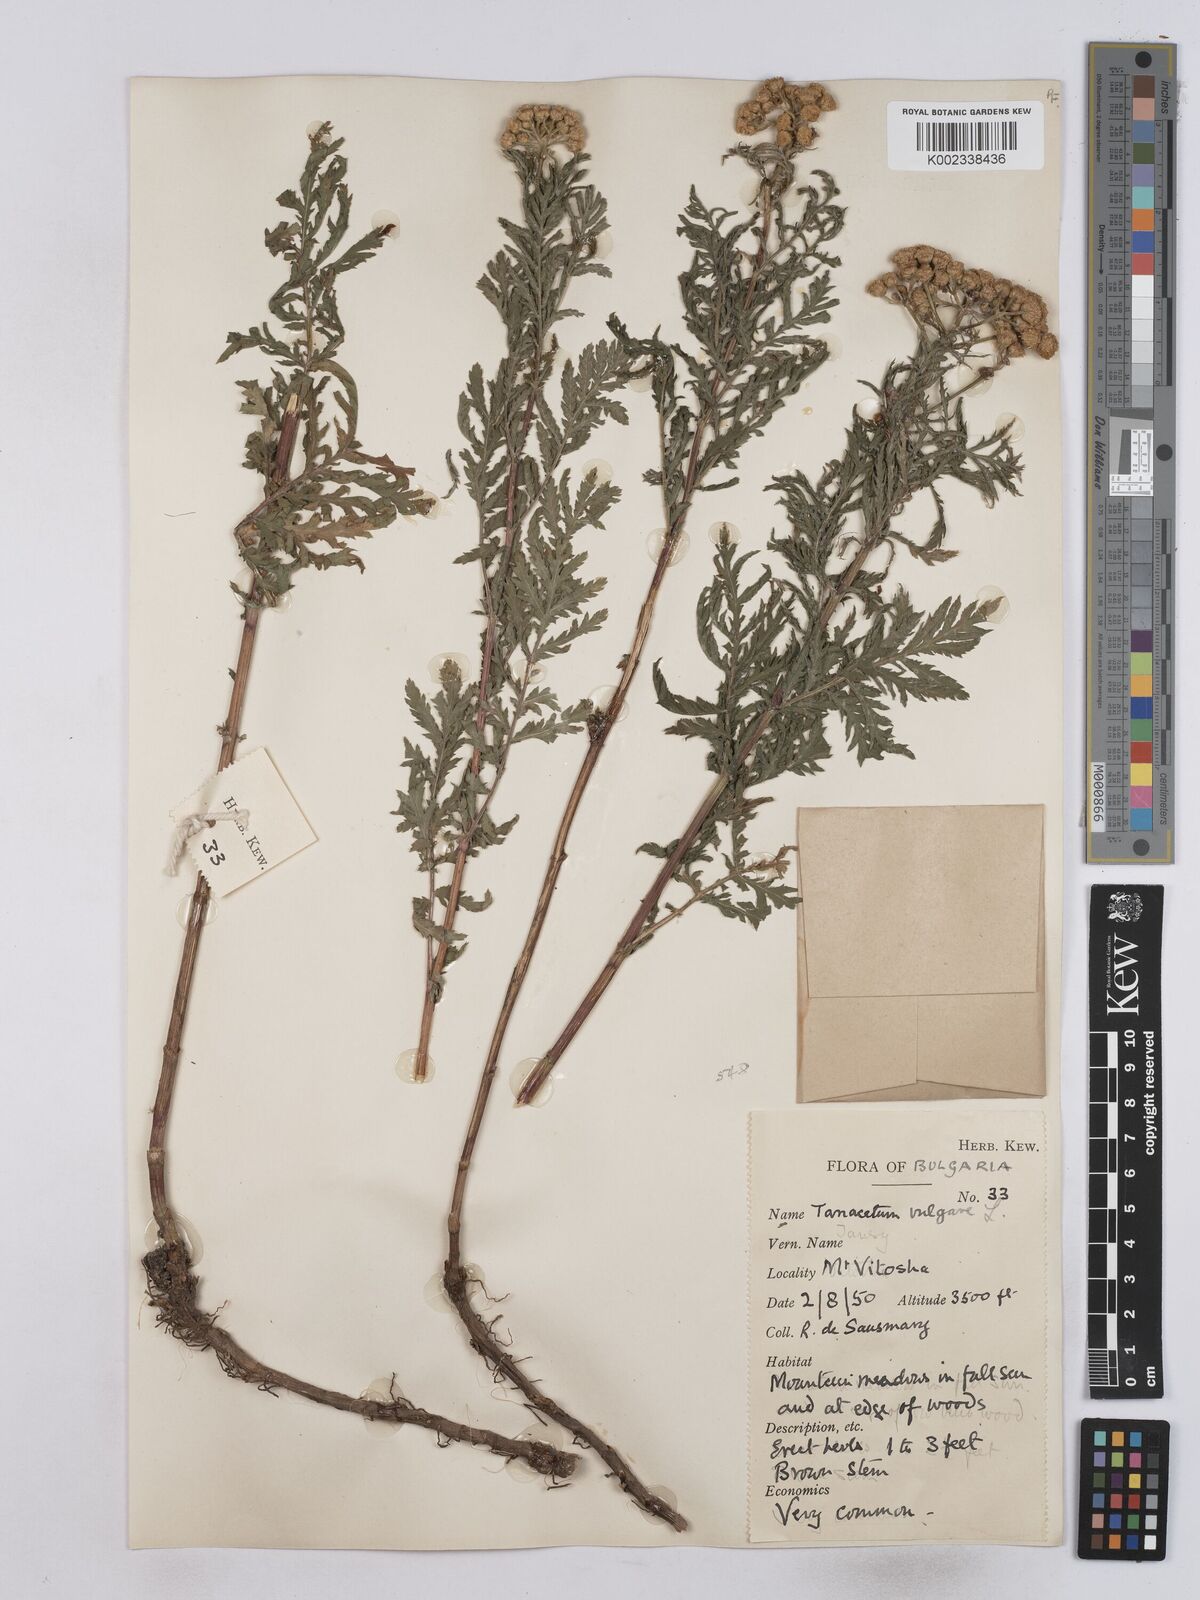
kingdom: Plantae
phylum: Tracheophyta
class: Magnoliopsida
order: Asterales
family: Asteraceae
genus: Tanacetum
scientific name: Tanacetum vulgare
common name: Common tansy
